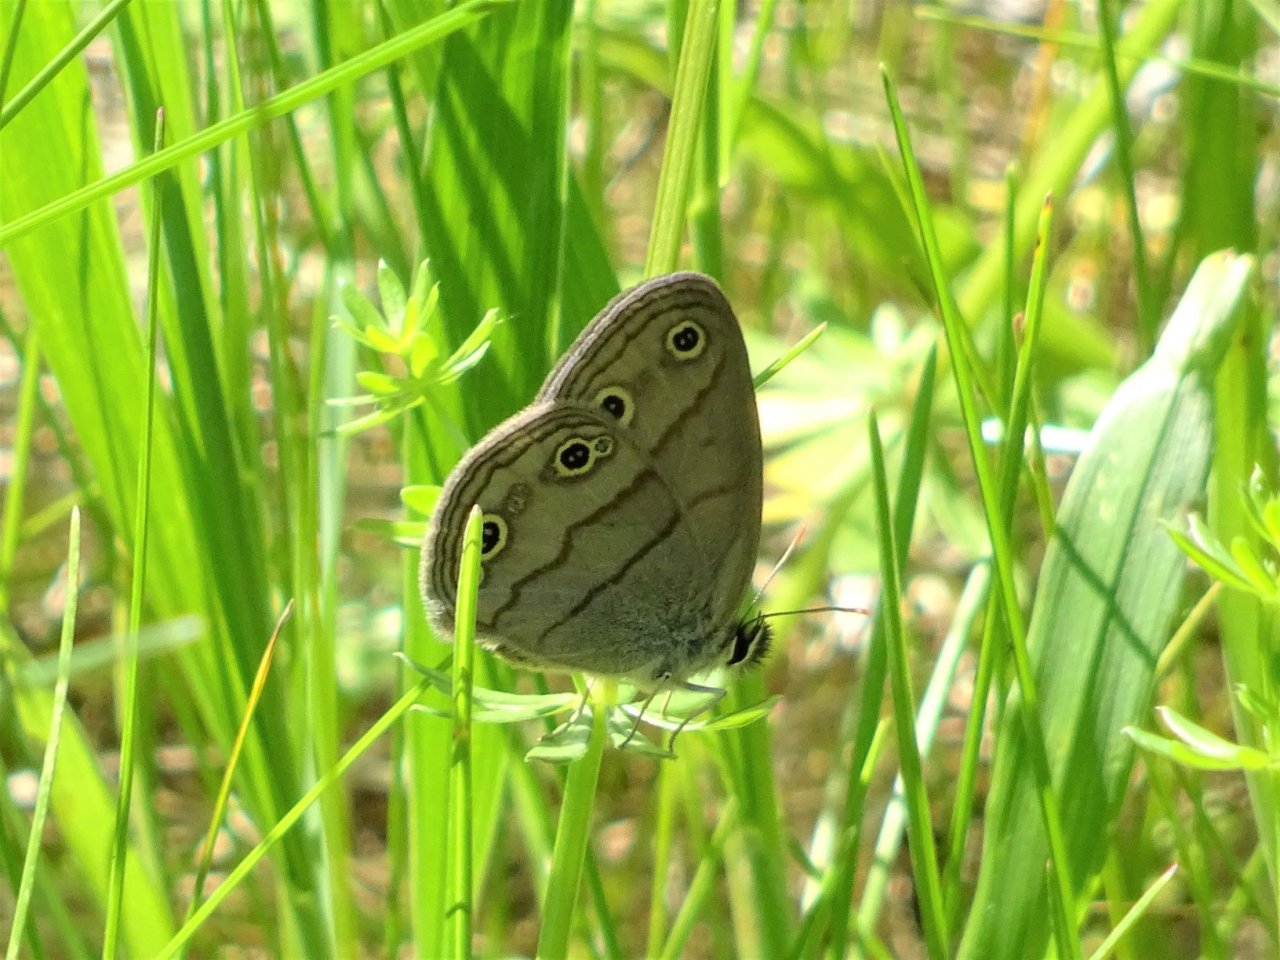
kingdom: Animalia
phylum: Arthropoda
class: Insecta
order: Lepidoptera
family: Nymphalidae
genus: Euptychia
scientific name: Euptychia cymela
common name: Little Wood Satyr
